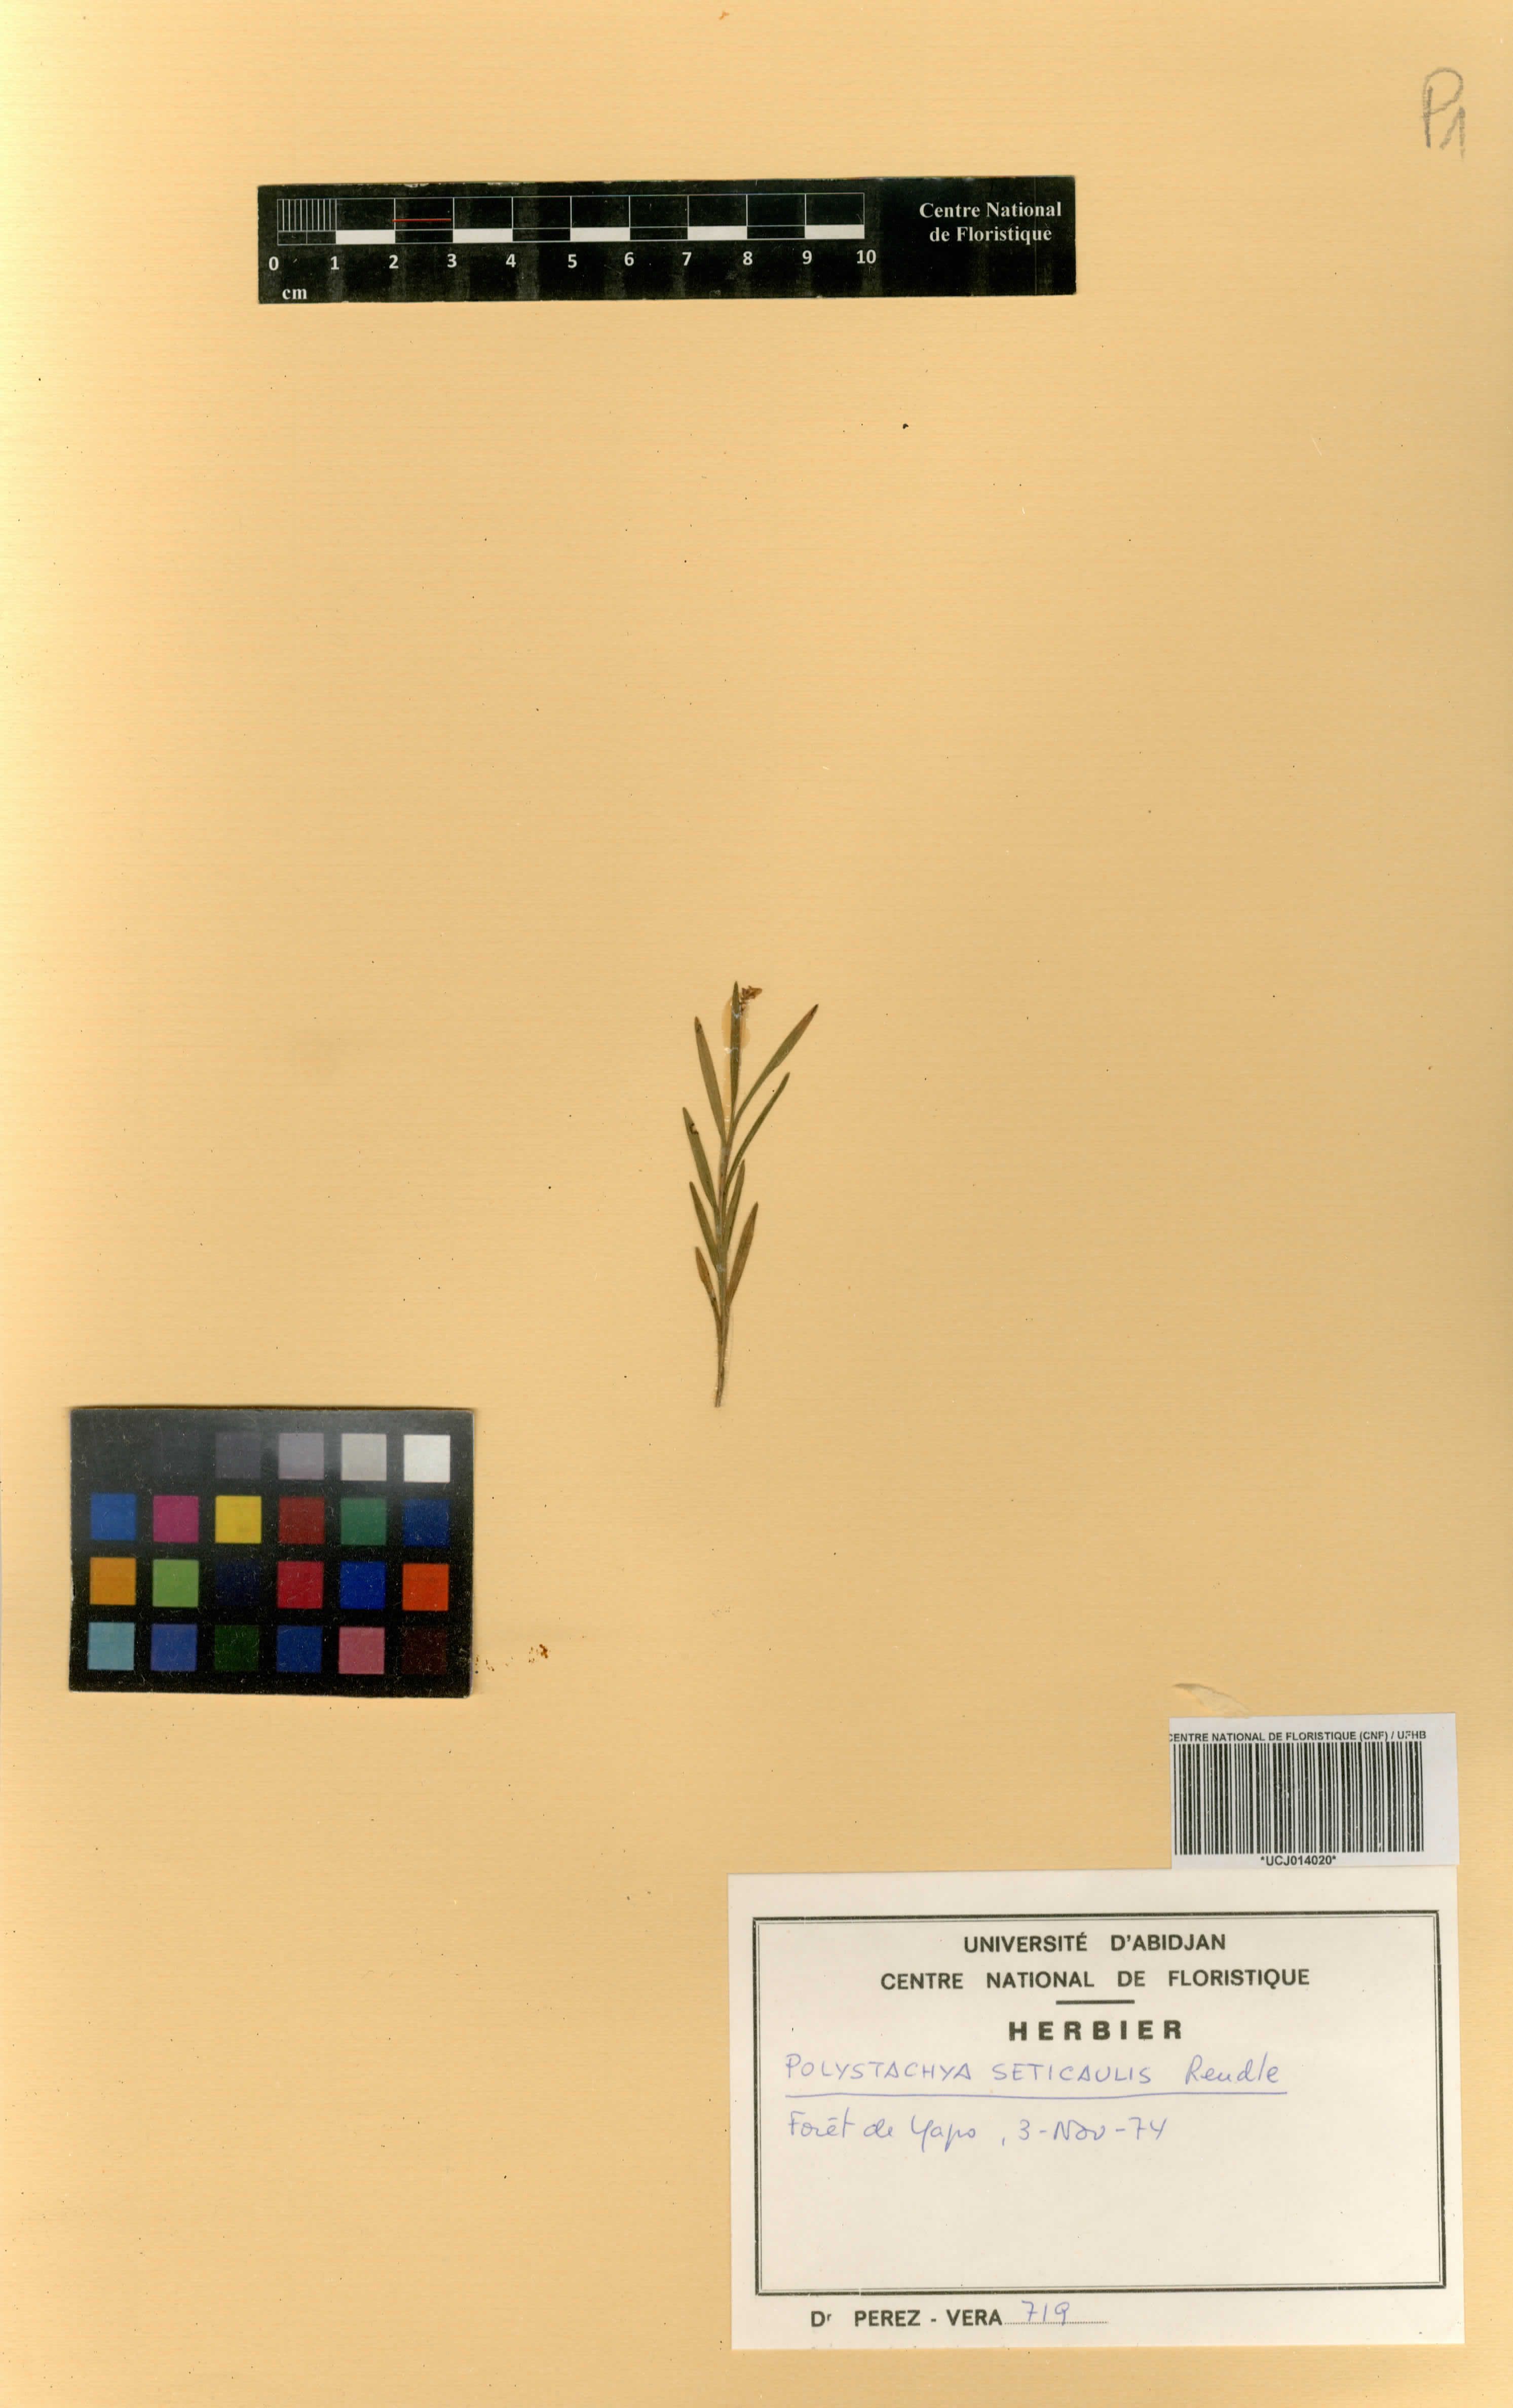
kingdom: Plantae
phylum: Tracheophyta
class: Liliopsida
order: Asparagales
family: Orchidaceae
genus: Polystachya
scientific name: Polystachya seticaulis
